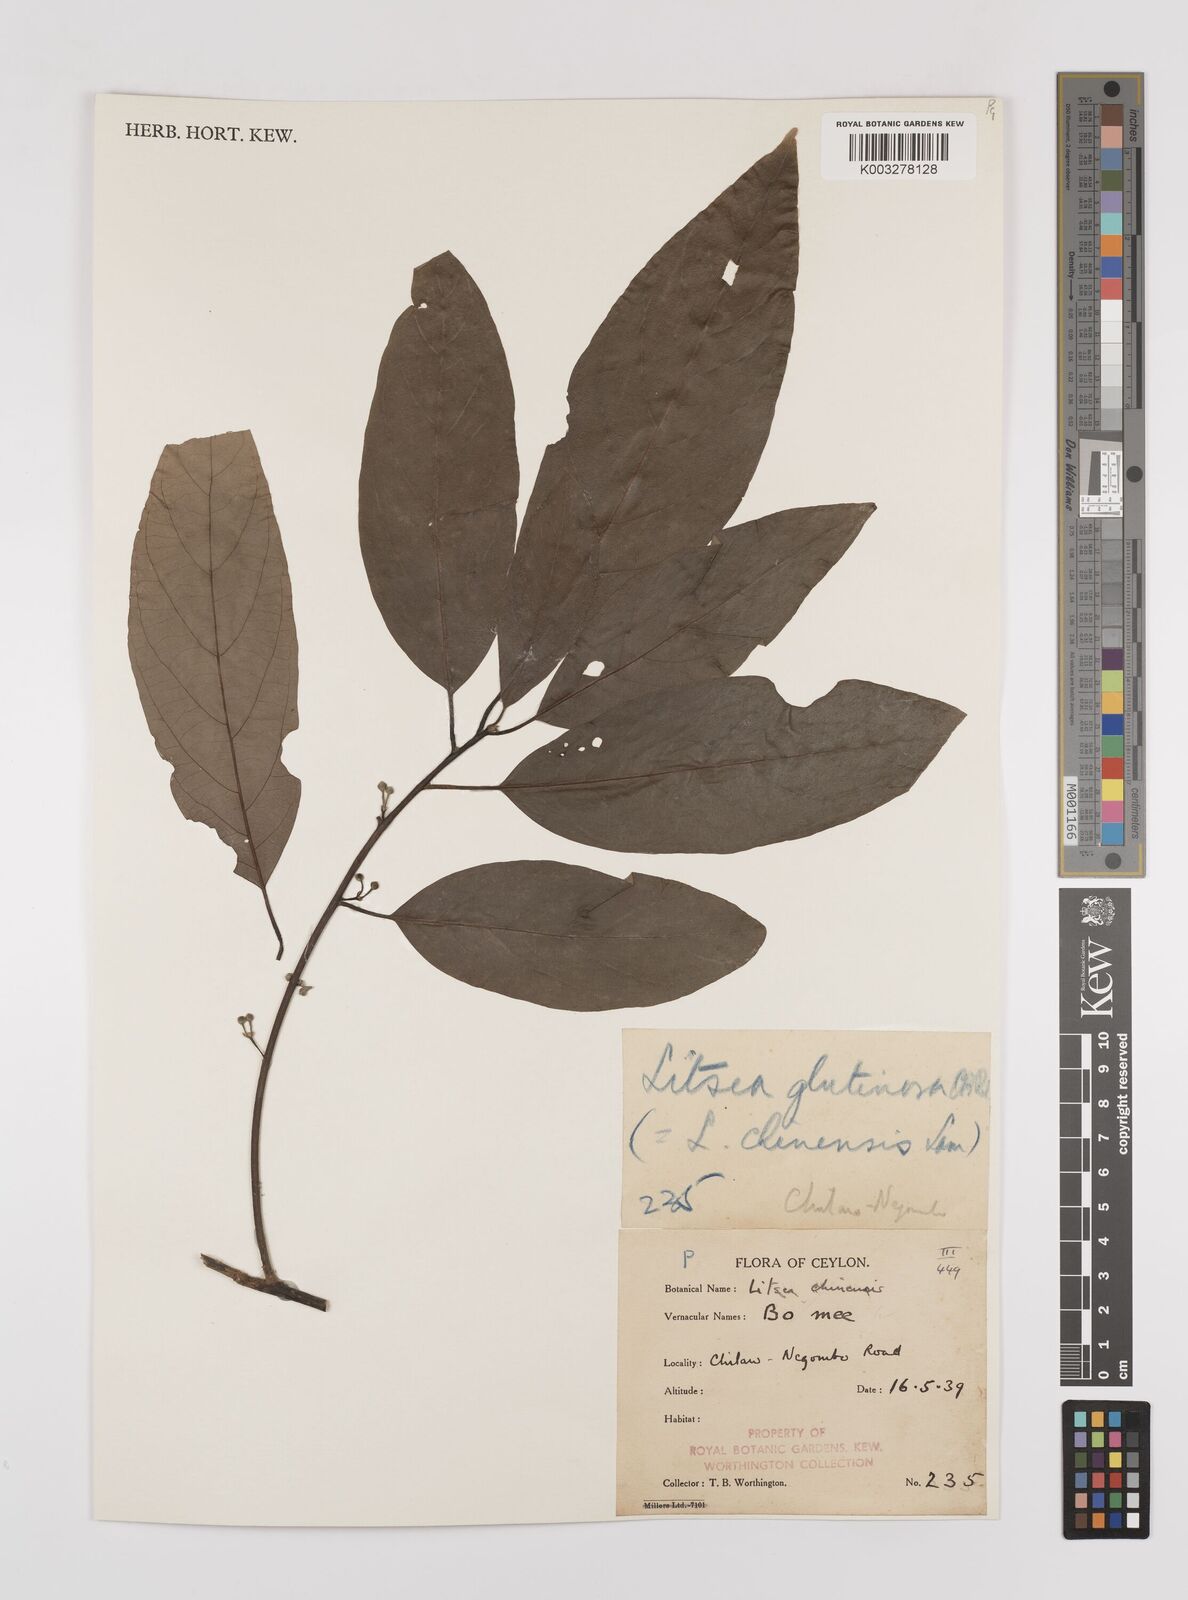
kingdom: Plantae
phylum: Tracheophyta
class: Magnoliopsida
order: Laurales
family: Lauraceae
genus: Litsea
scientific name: Litsea
